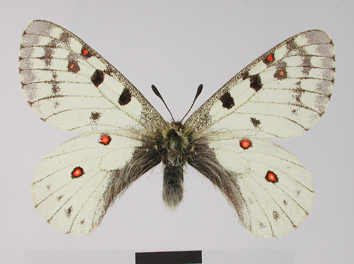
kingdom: Animalia
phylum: Arthropoda
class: Insecta
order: Lepidoptera
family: Papilionidae
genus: Parnassius
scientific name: Parnassius smintheus
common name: Mountain parnassian
